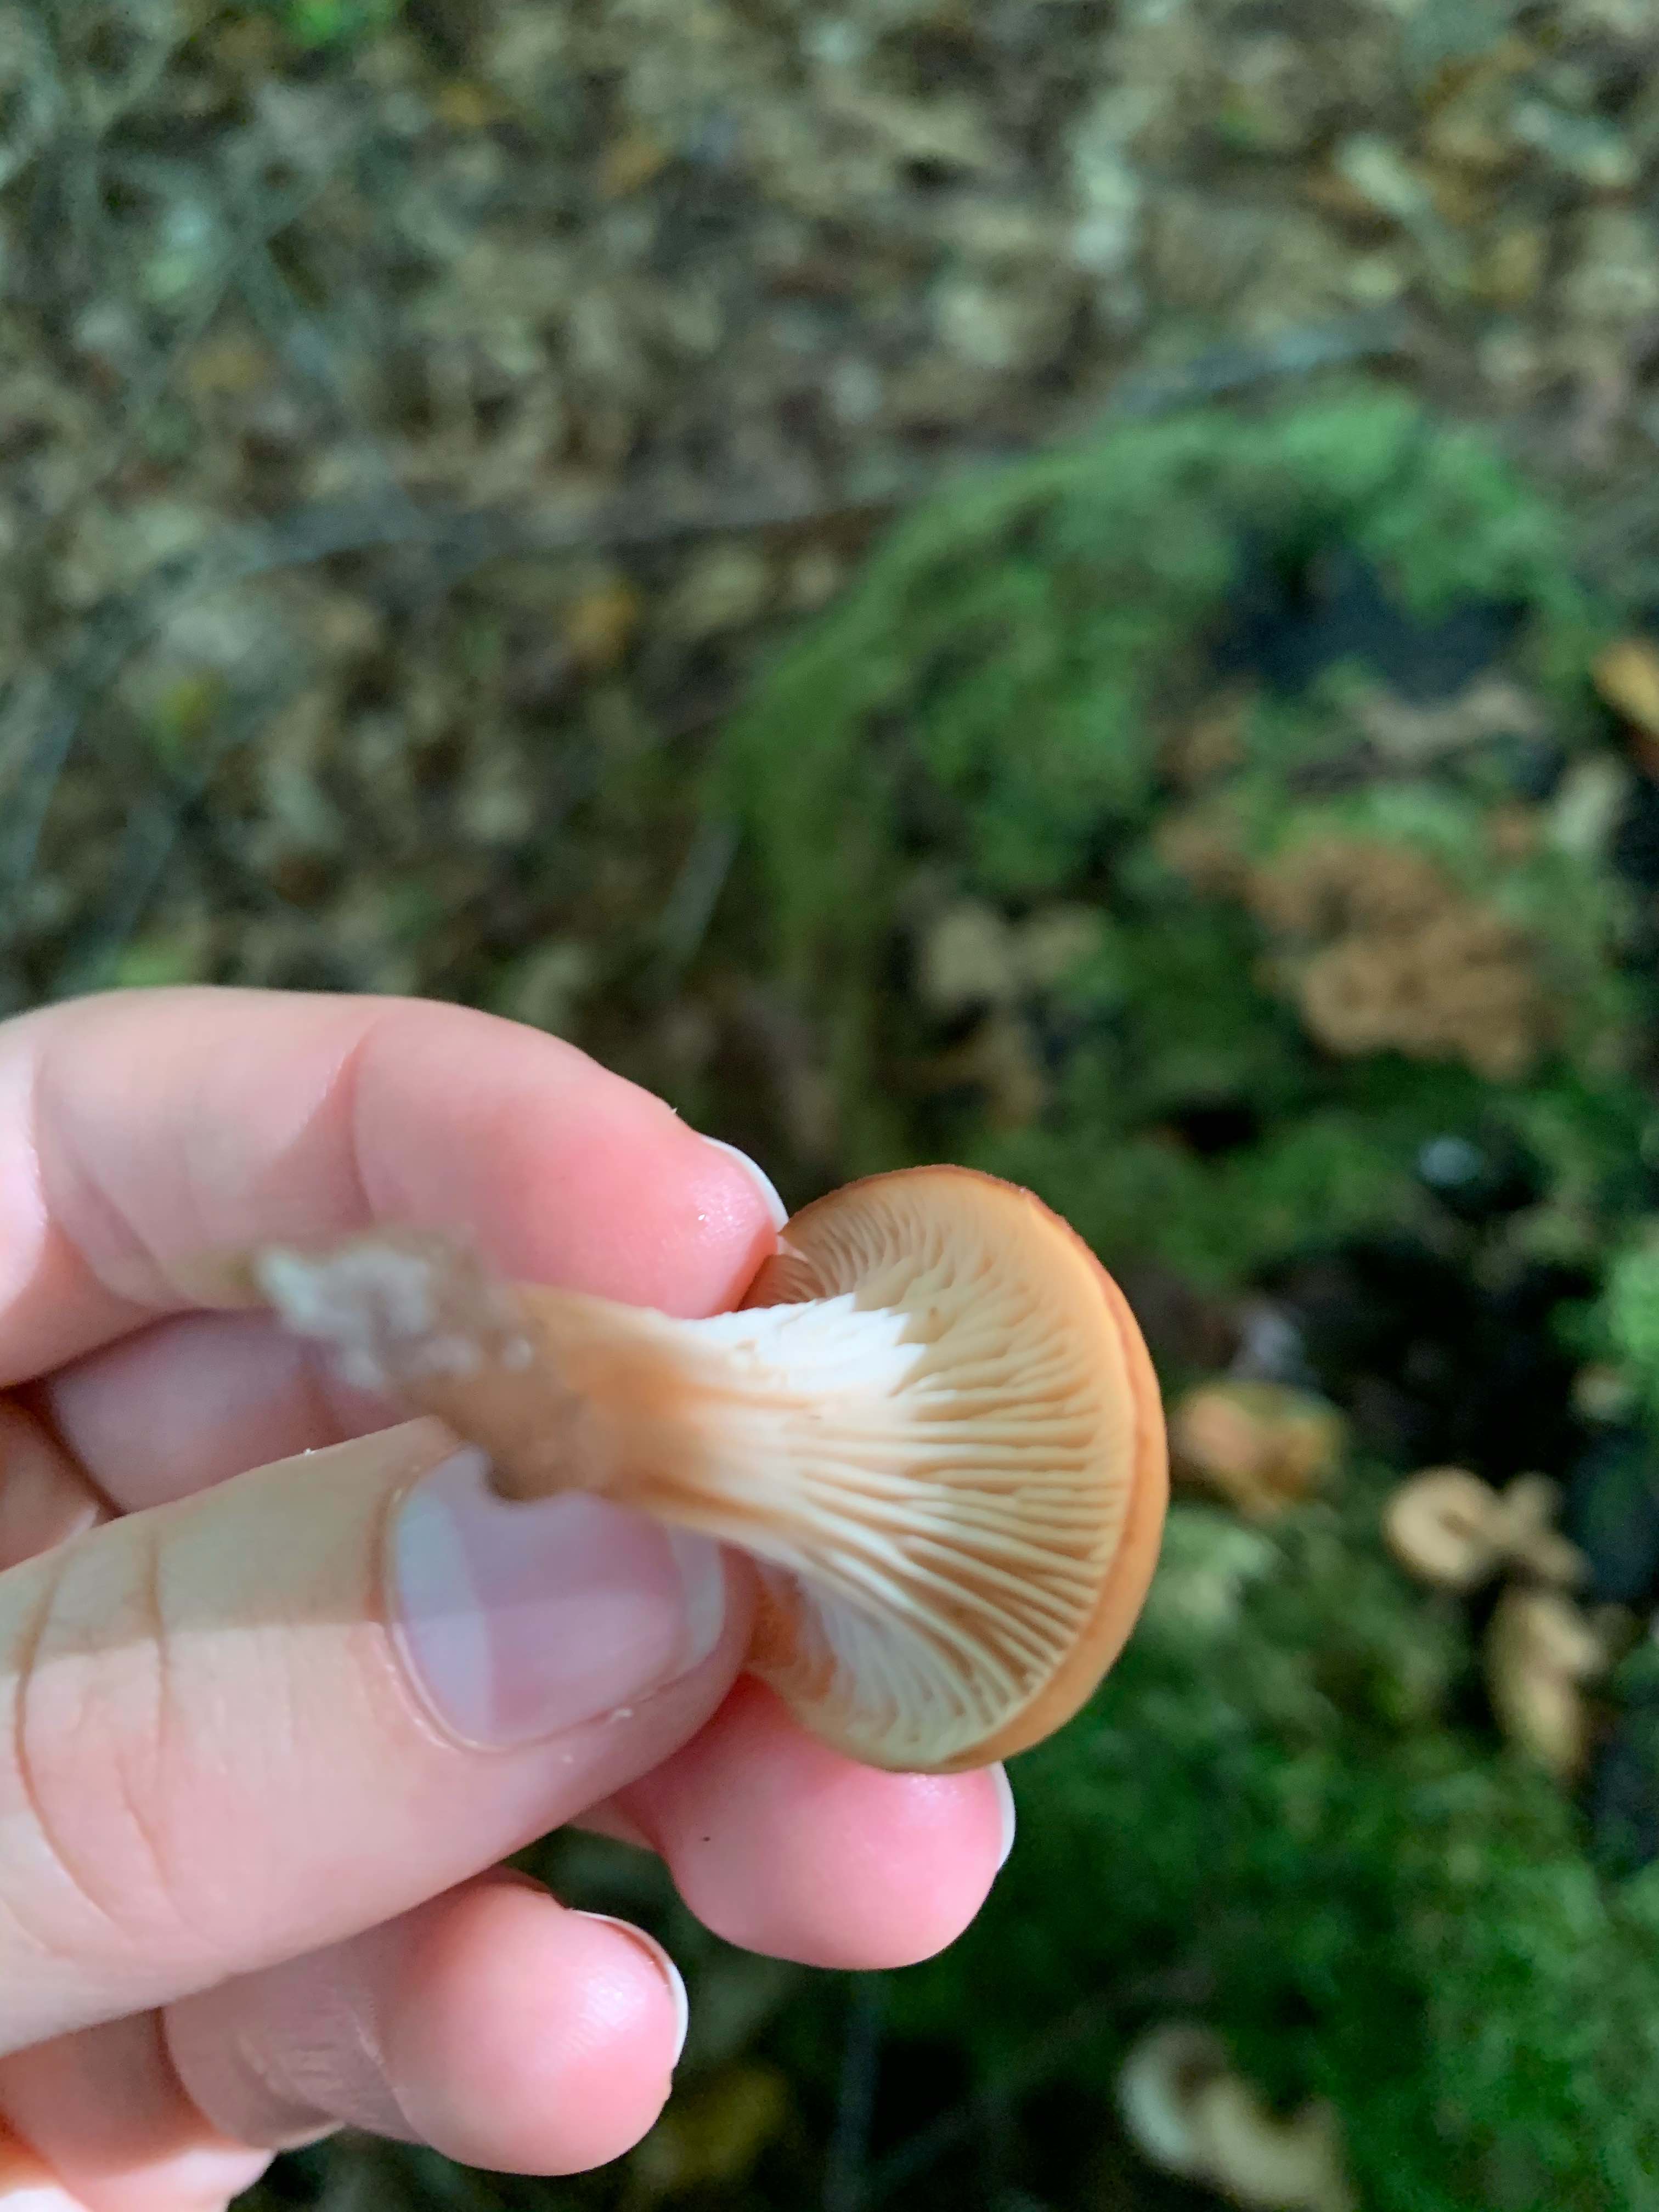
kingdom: Fungi
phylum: Basidiomycota
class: Agaricomycetes
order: Russulales
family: Auriscalpiaceae
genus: Lentinellus
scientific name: Lentinellus cochleatus
